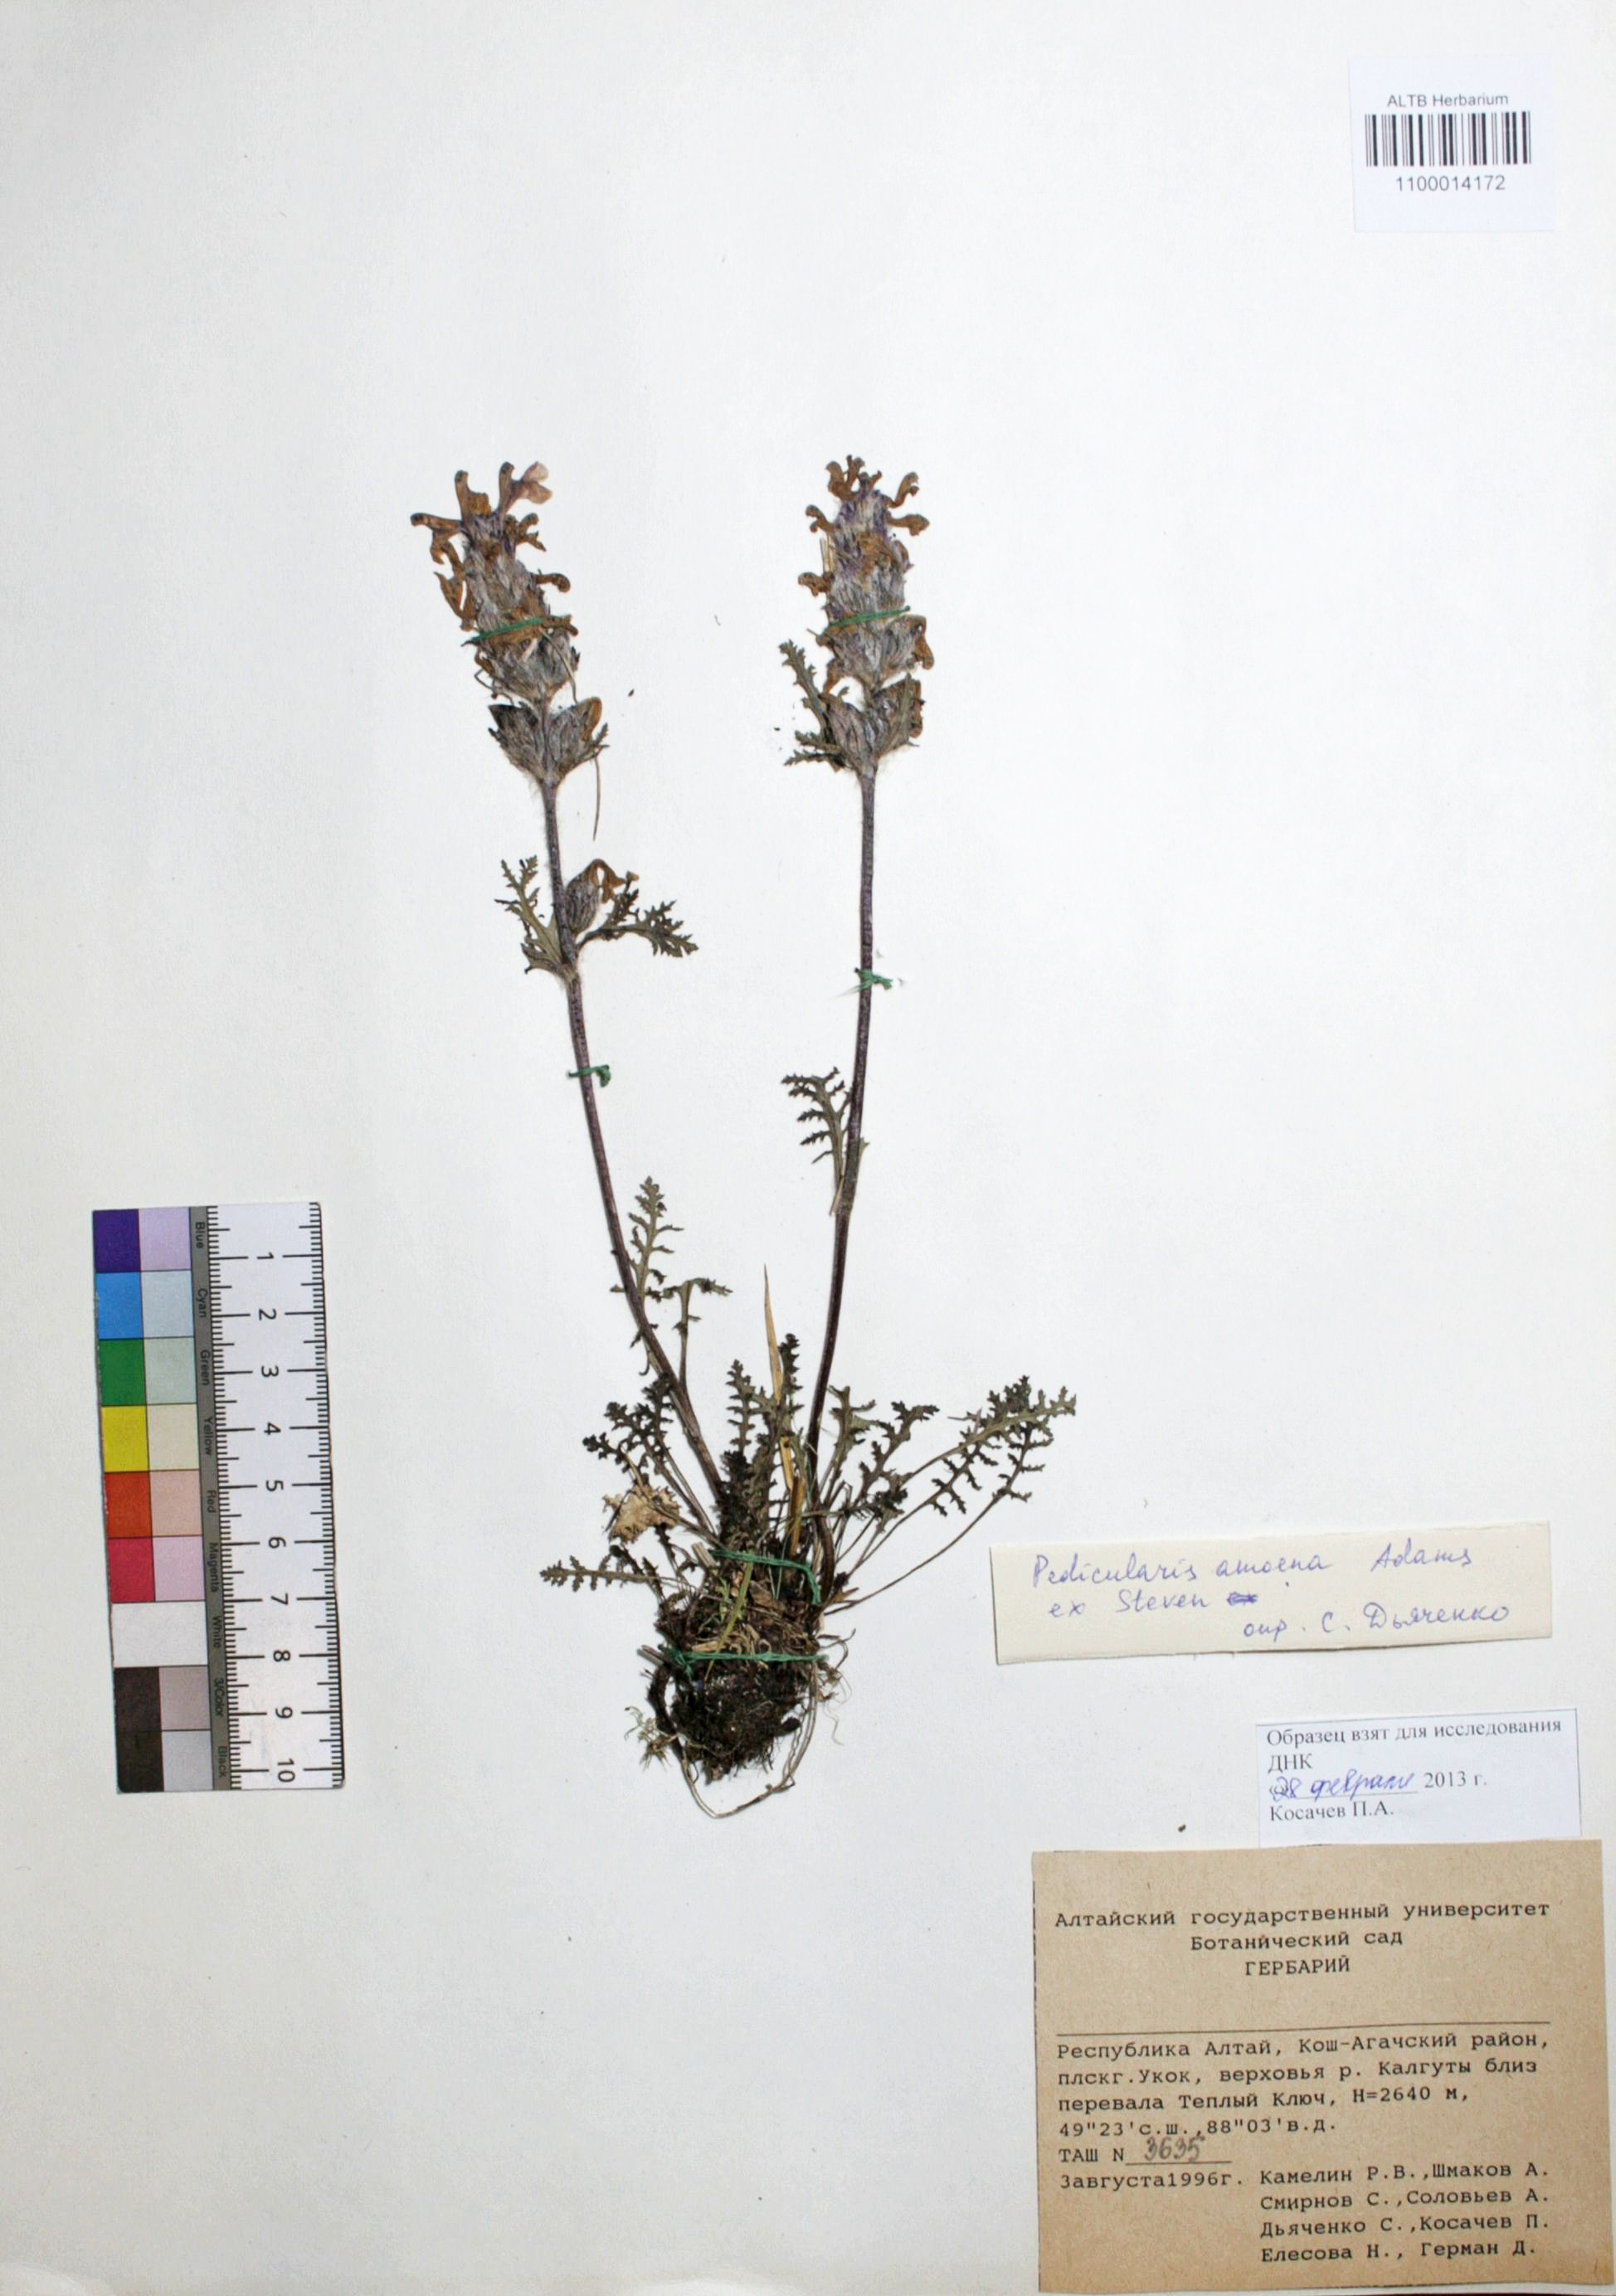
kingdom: Plantae
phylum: Tracheophyta
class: Magnoliopsida
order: Lamiales
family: Orobanchaceae
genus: Pedicularis
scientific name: Pedicularis amoena
